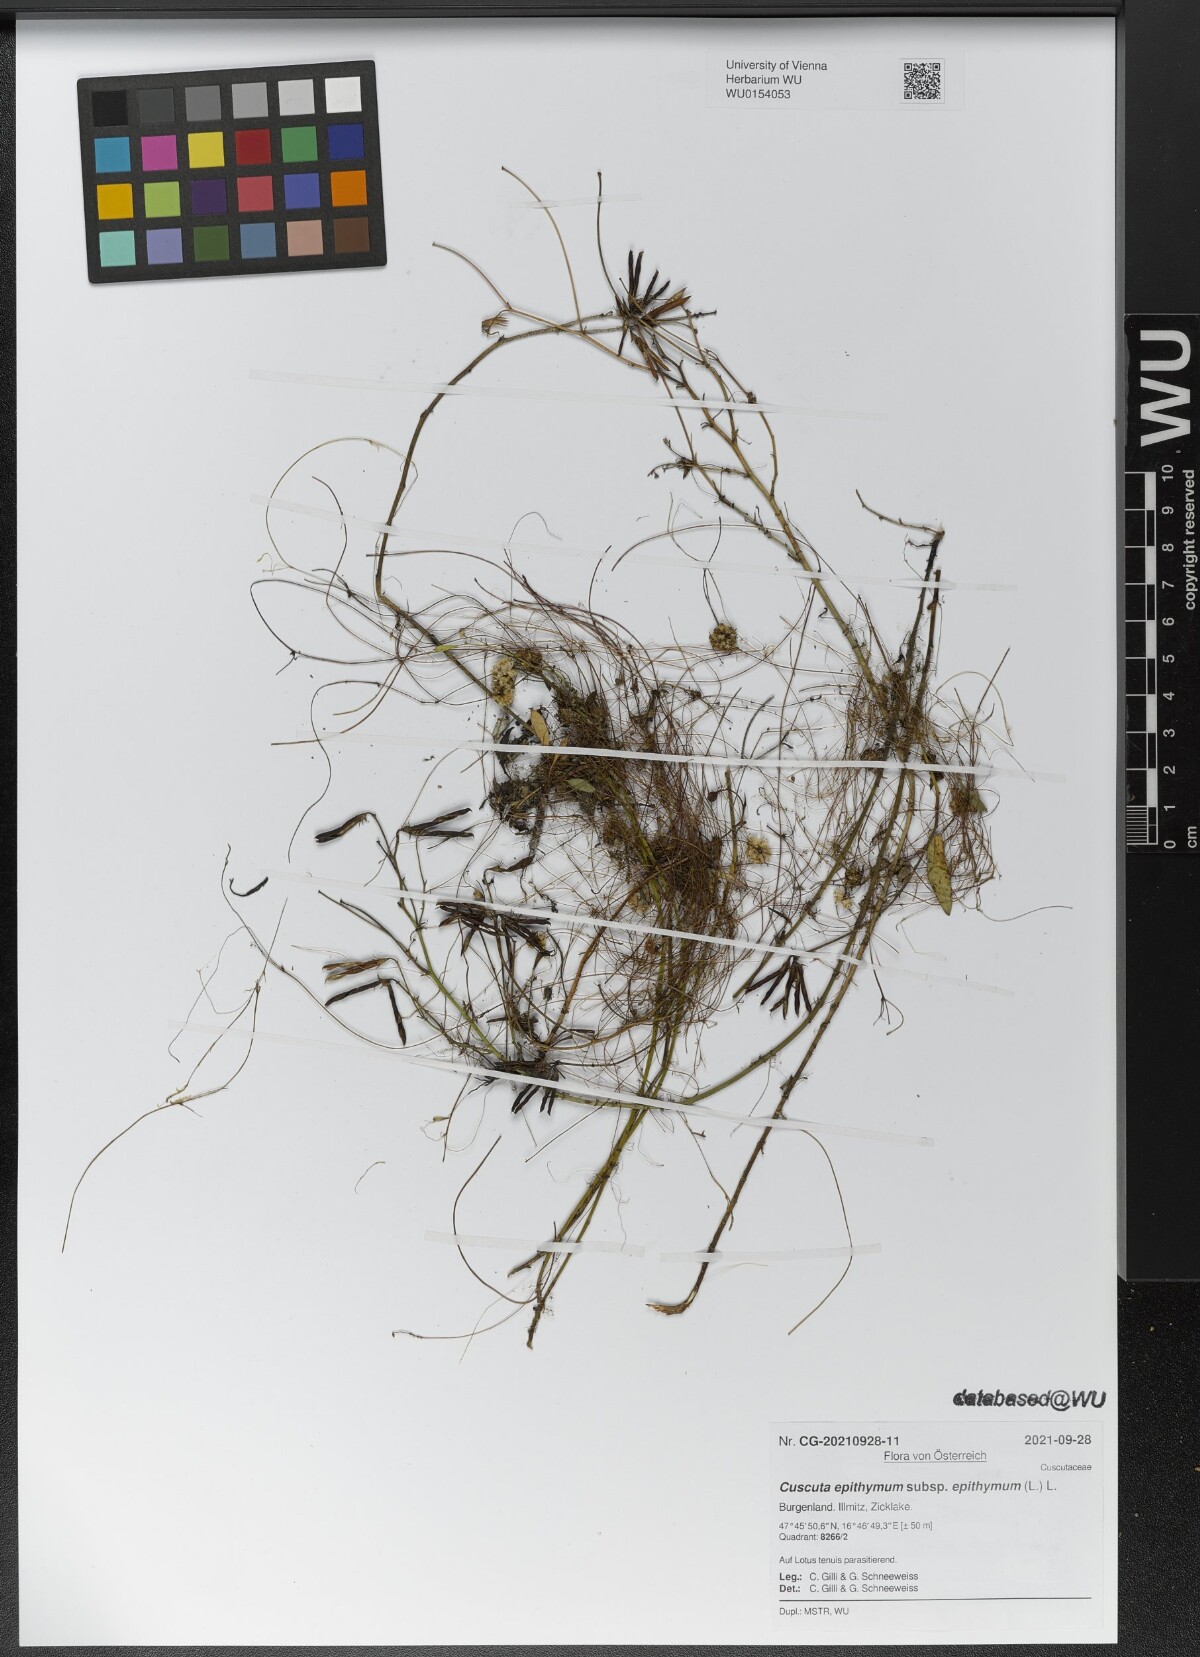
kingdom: Plantae
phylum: Tracheophyta
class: Magnoliopsida
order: Solanales
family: Convolvulaceae
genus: Cuscuta
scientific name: Cuscuta epithymum
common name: Clover dodder
